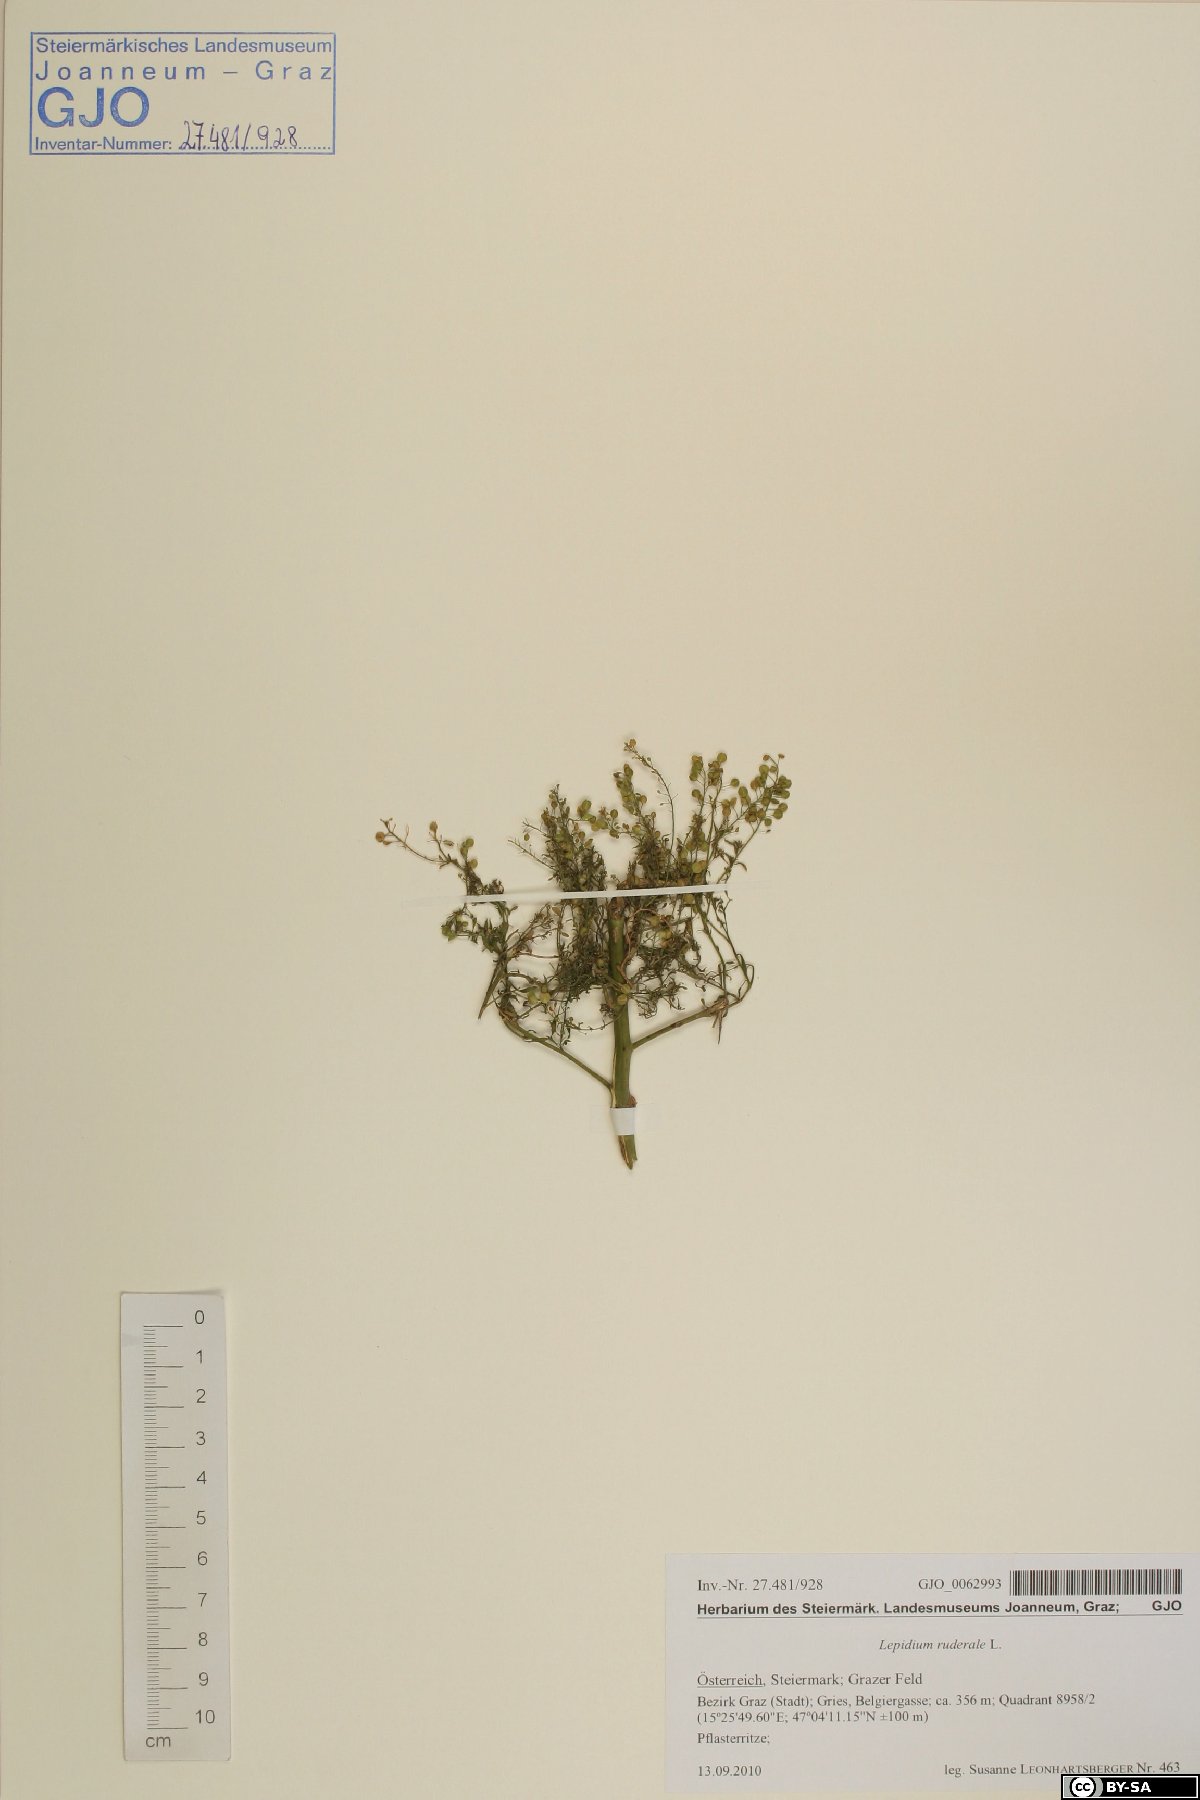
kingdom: Plantae
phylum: Tracheophyta
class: Magnoliopsida
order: Brassicales
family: Brassicaceae
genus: Lepidium
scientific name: Lepidium ruderale
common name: Narrow-leaved pepperwort
